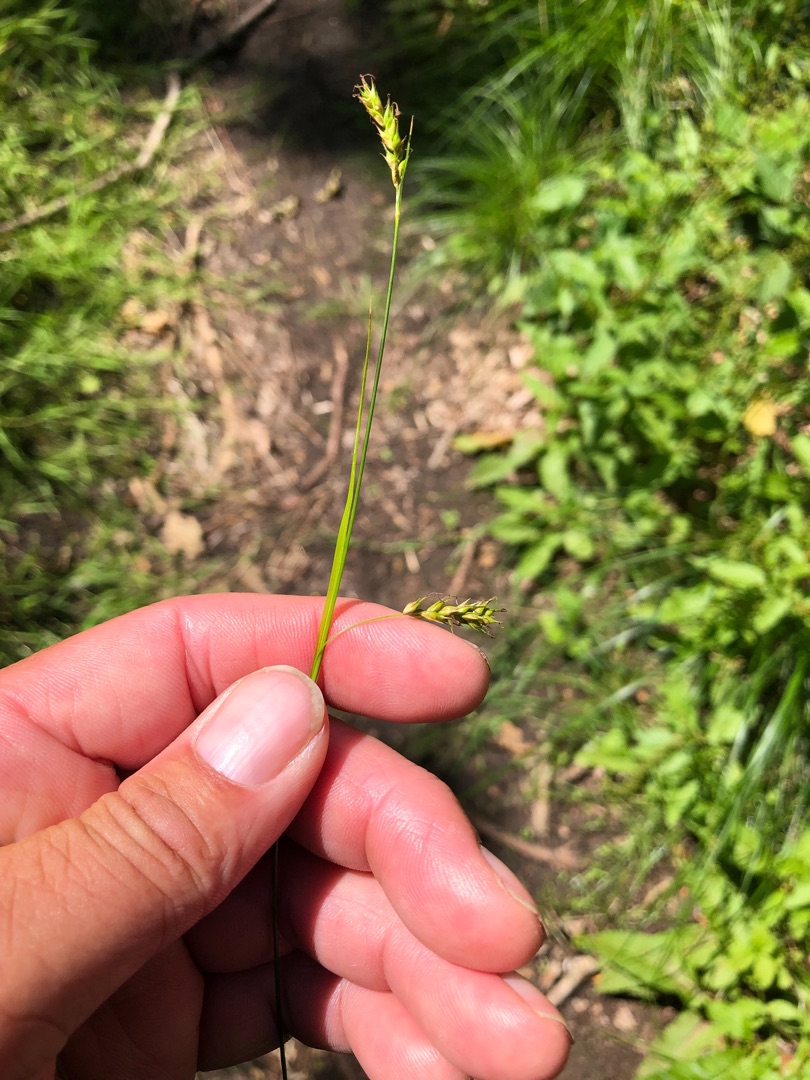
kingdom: Plantae
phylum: Tracheophyta
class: Liliopsida
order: Poales
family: Cyperaceae
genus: Carex
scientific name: Carex sylvatica
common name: Skov-star
